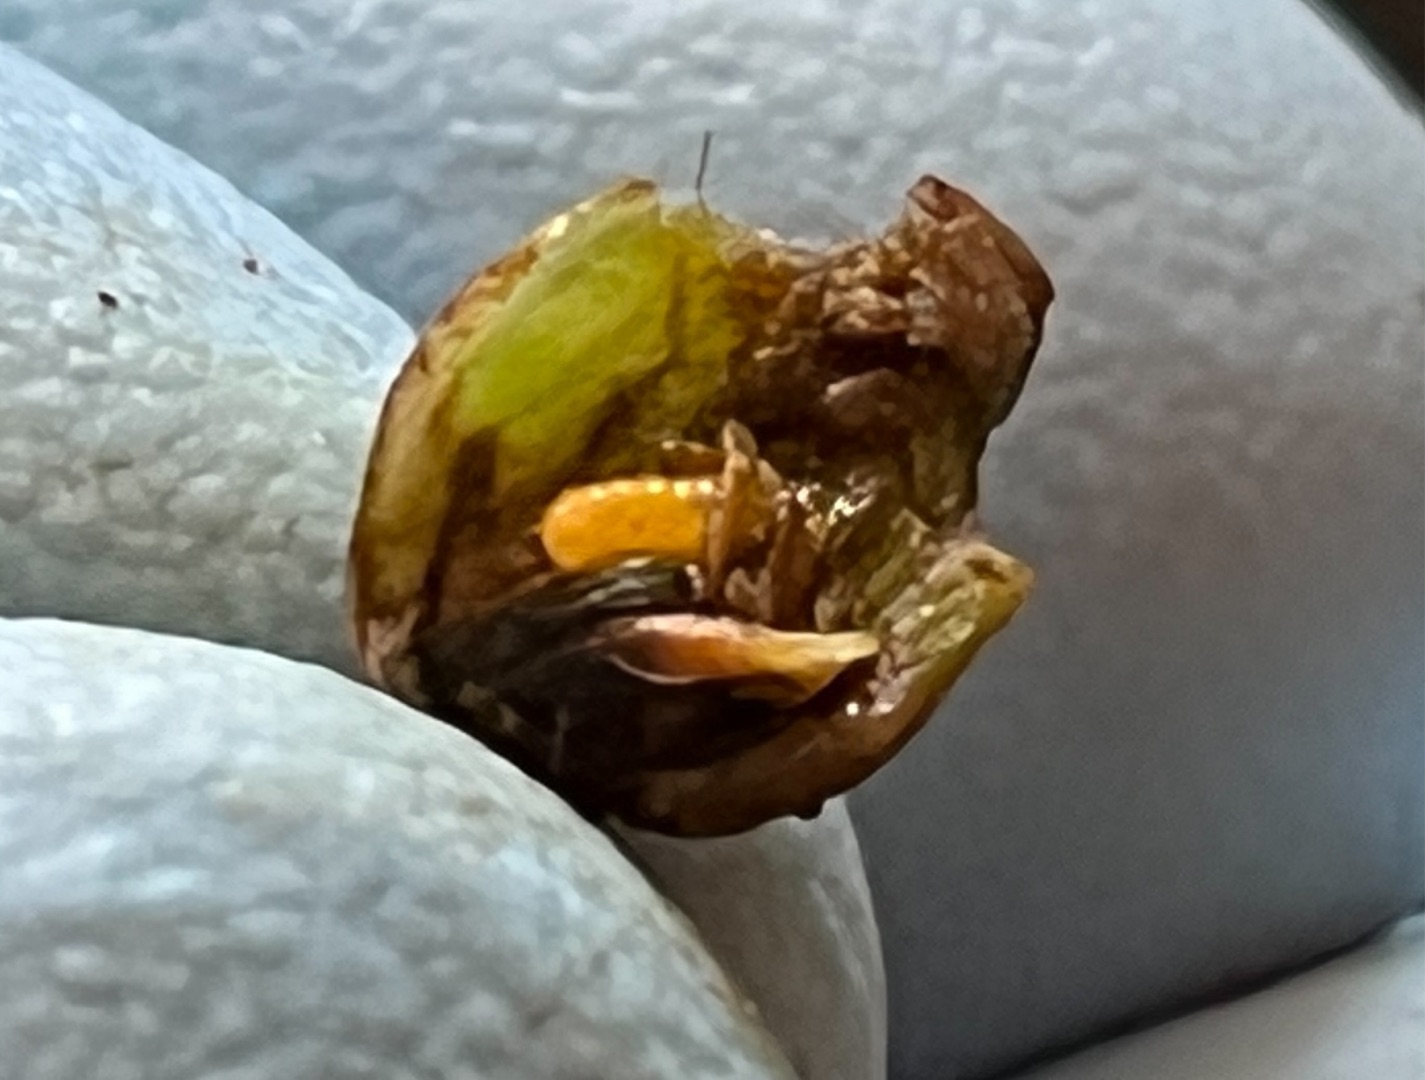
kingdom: Animalia
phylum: Arthropoda
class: Insecta
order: Diptera
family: Cecidomyiidae
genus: Dasineura
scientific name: Dasineura
